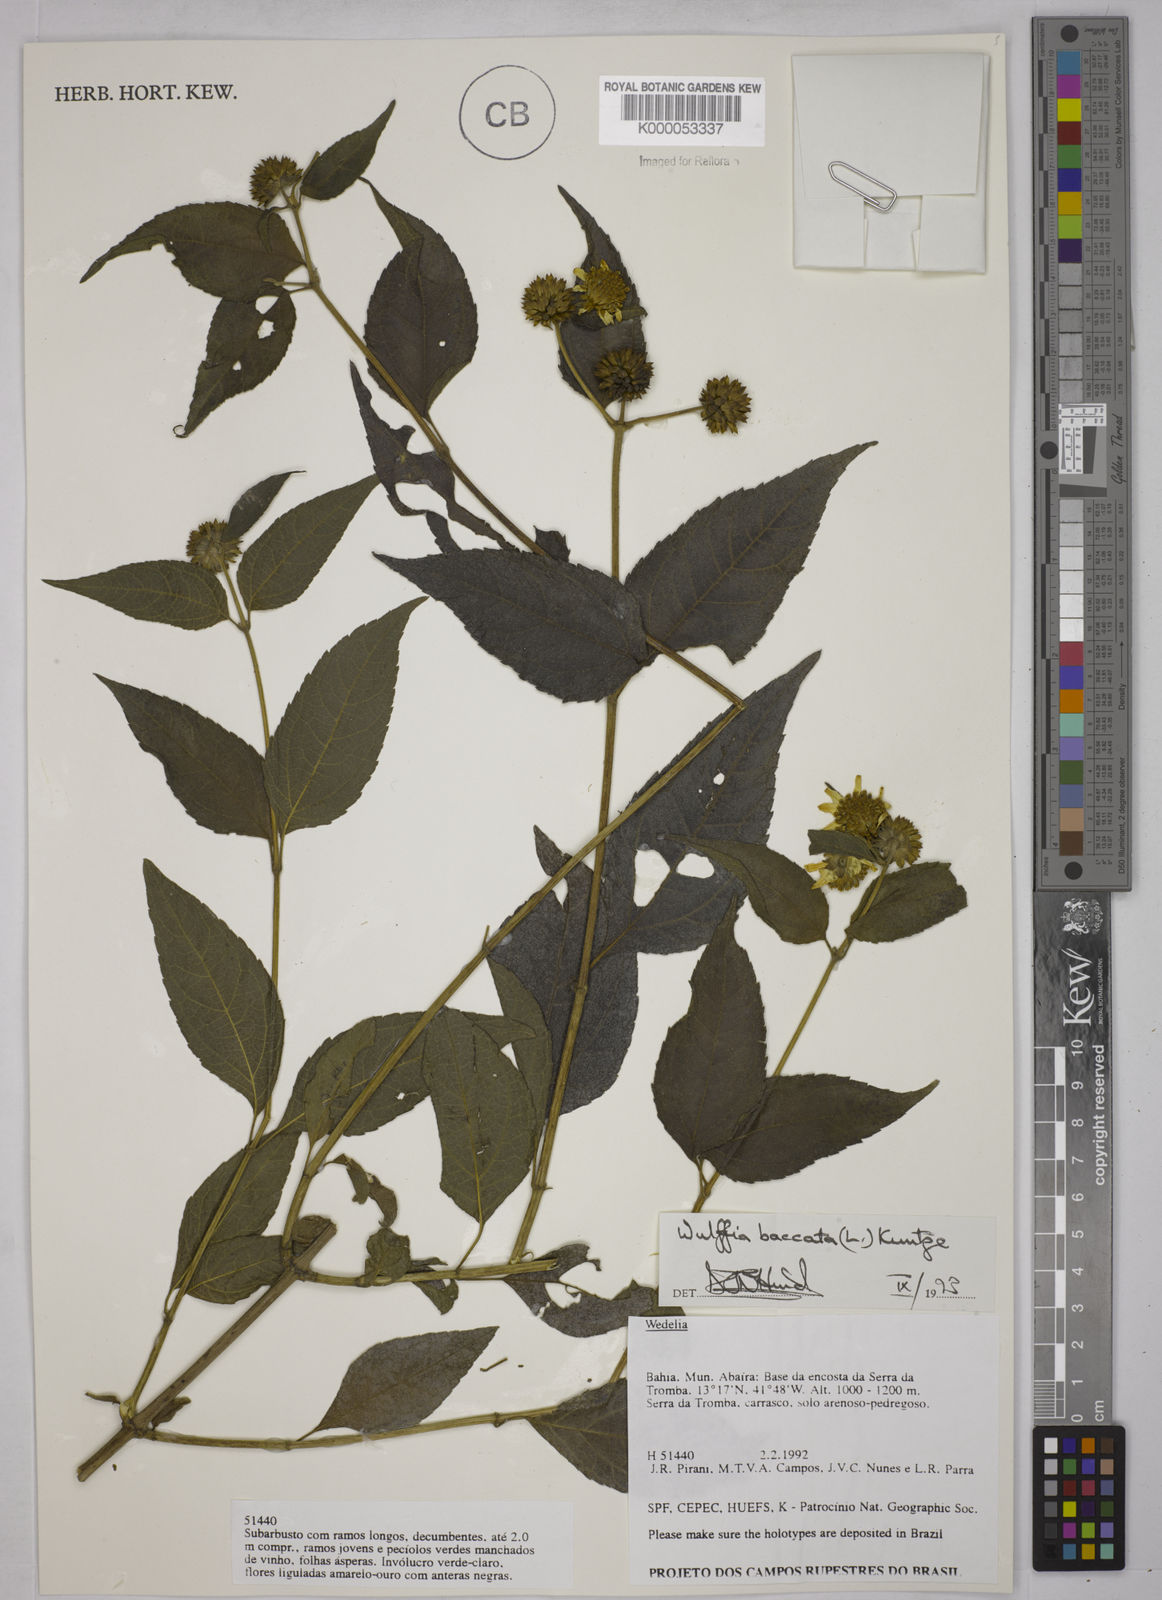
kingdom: Plantae
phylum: Tracheophyta
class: Magnoliopsida
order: Asterales
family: Asteraceae
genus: Tilesia
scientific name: Tilesia baccata
